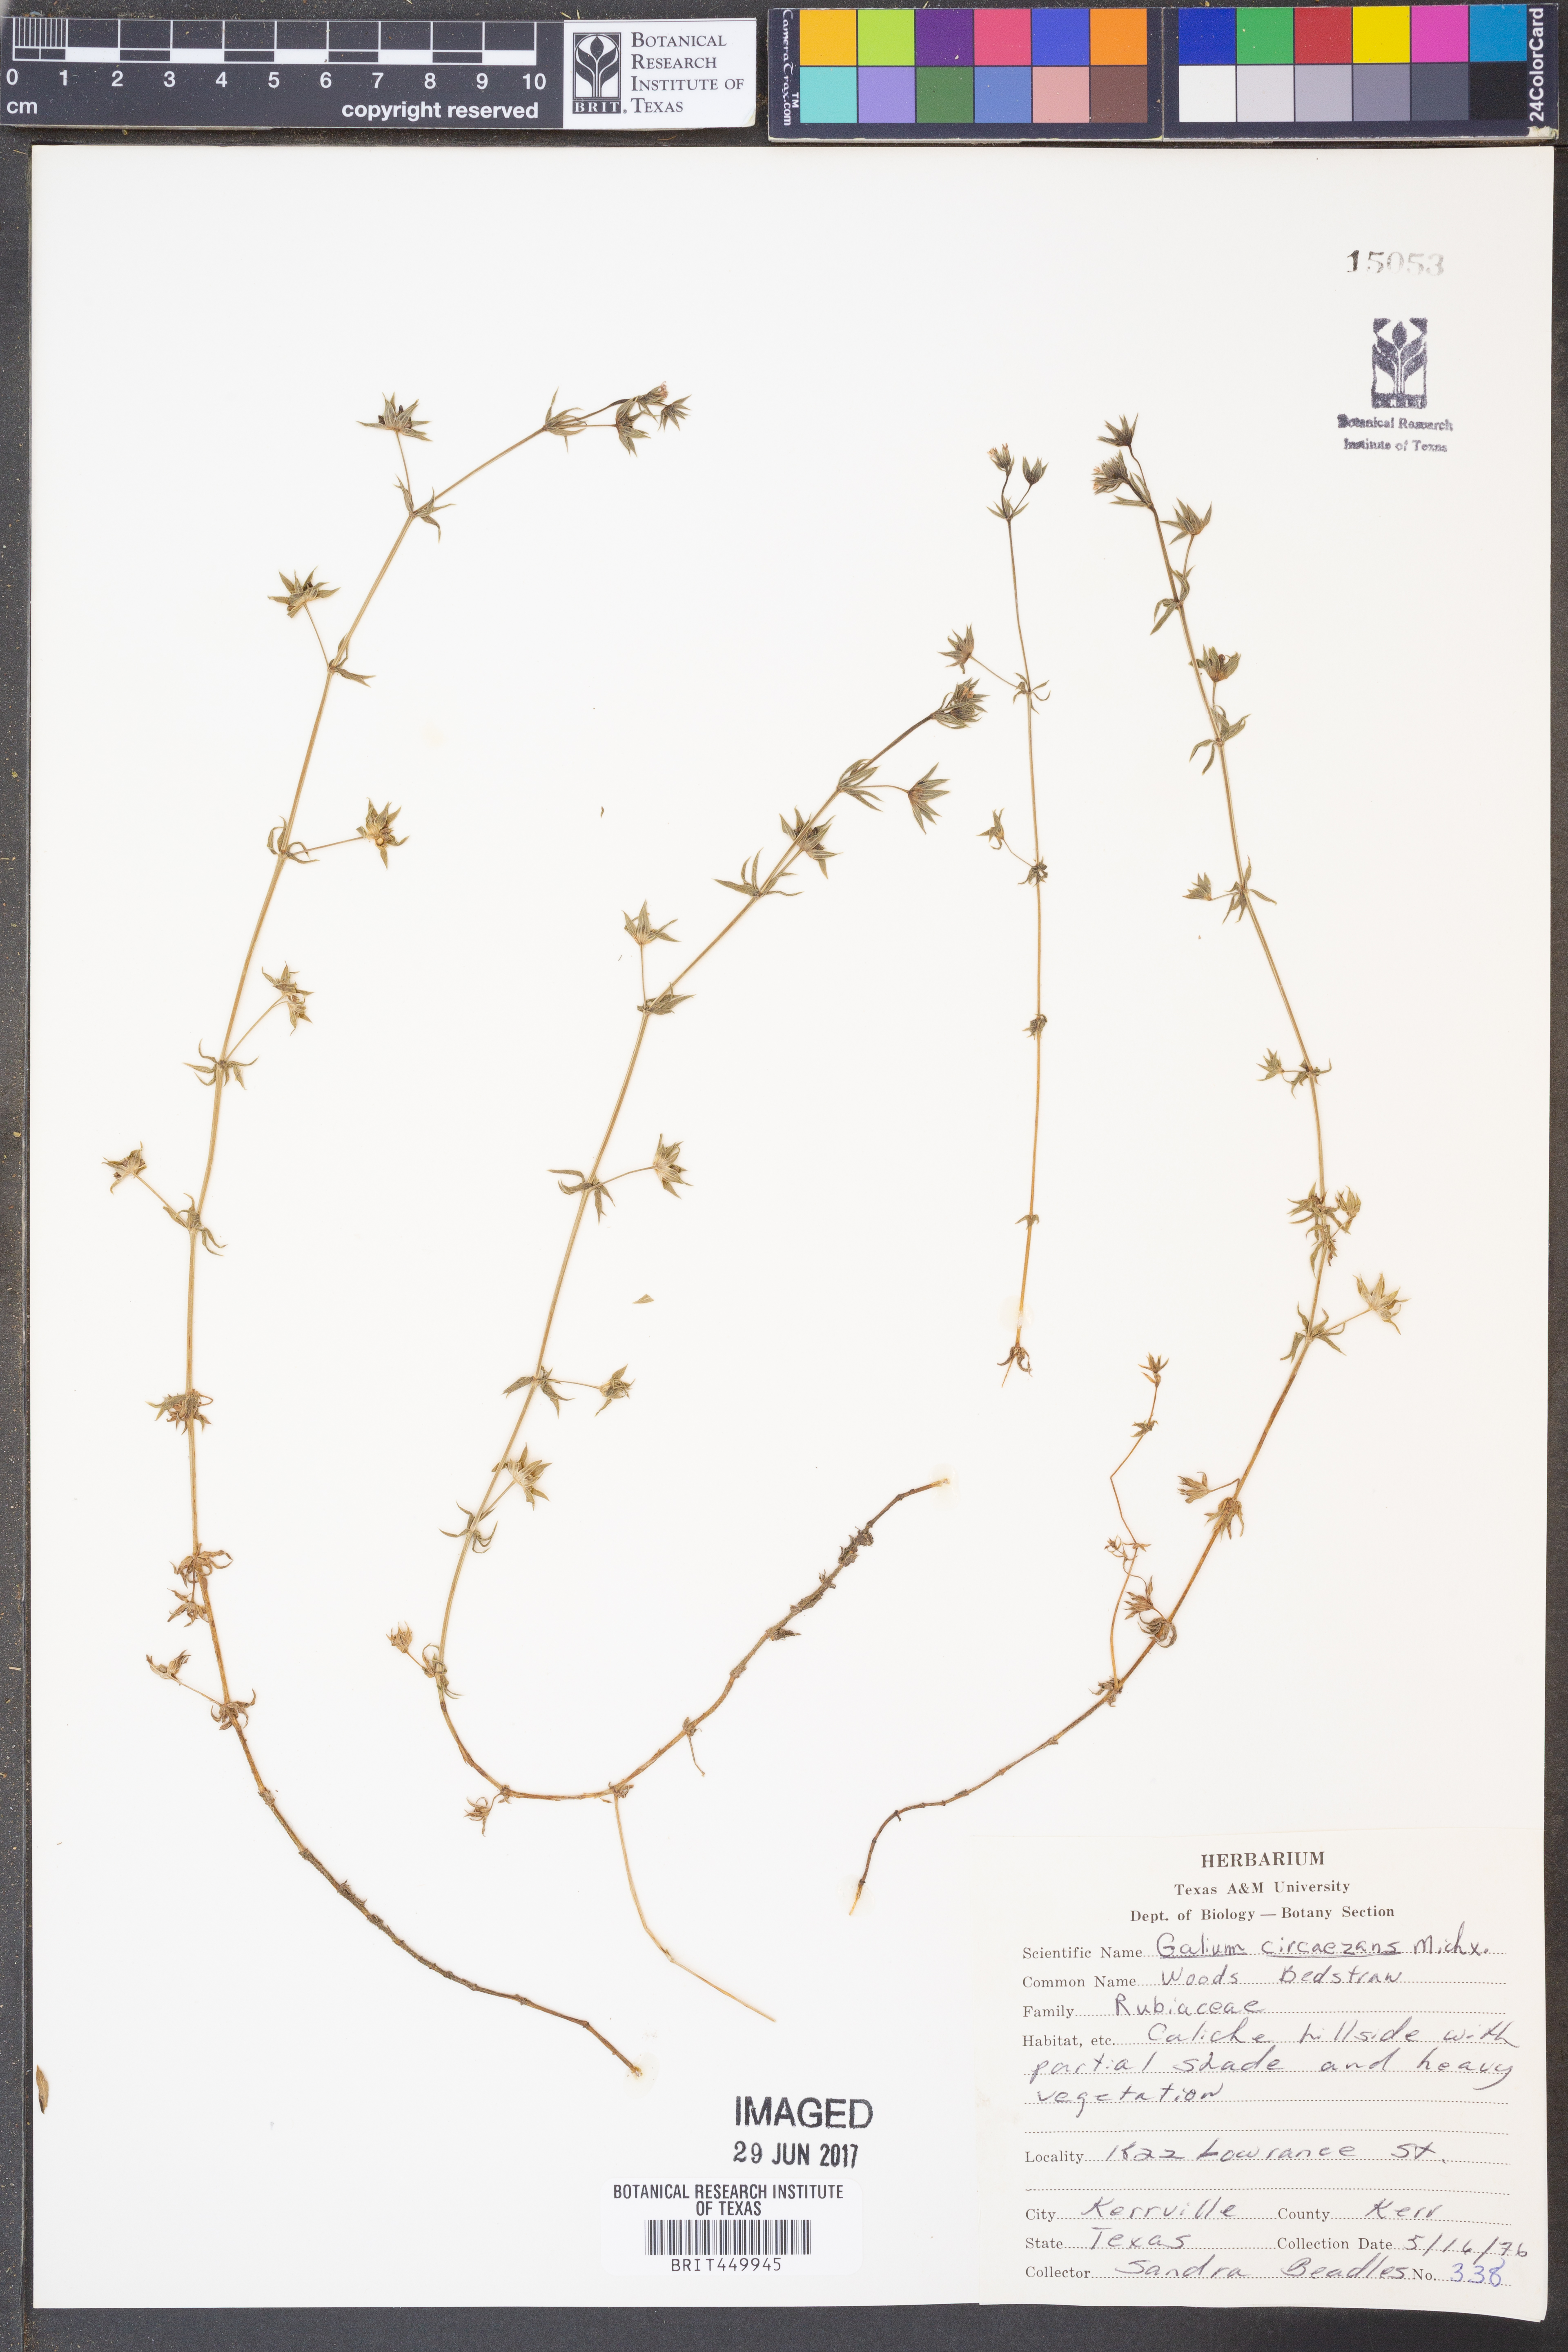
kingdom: Plantae
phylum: Tracheophyta
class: Magnoliopsida
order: Gentianales
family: Rubiaceae
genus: Galium
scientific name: Galium circaezans
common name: Forest bedstraw
